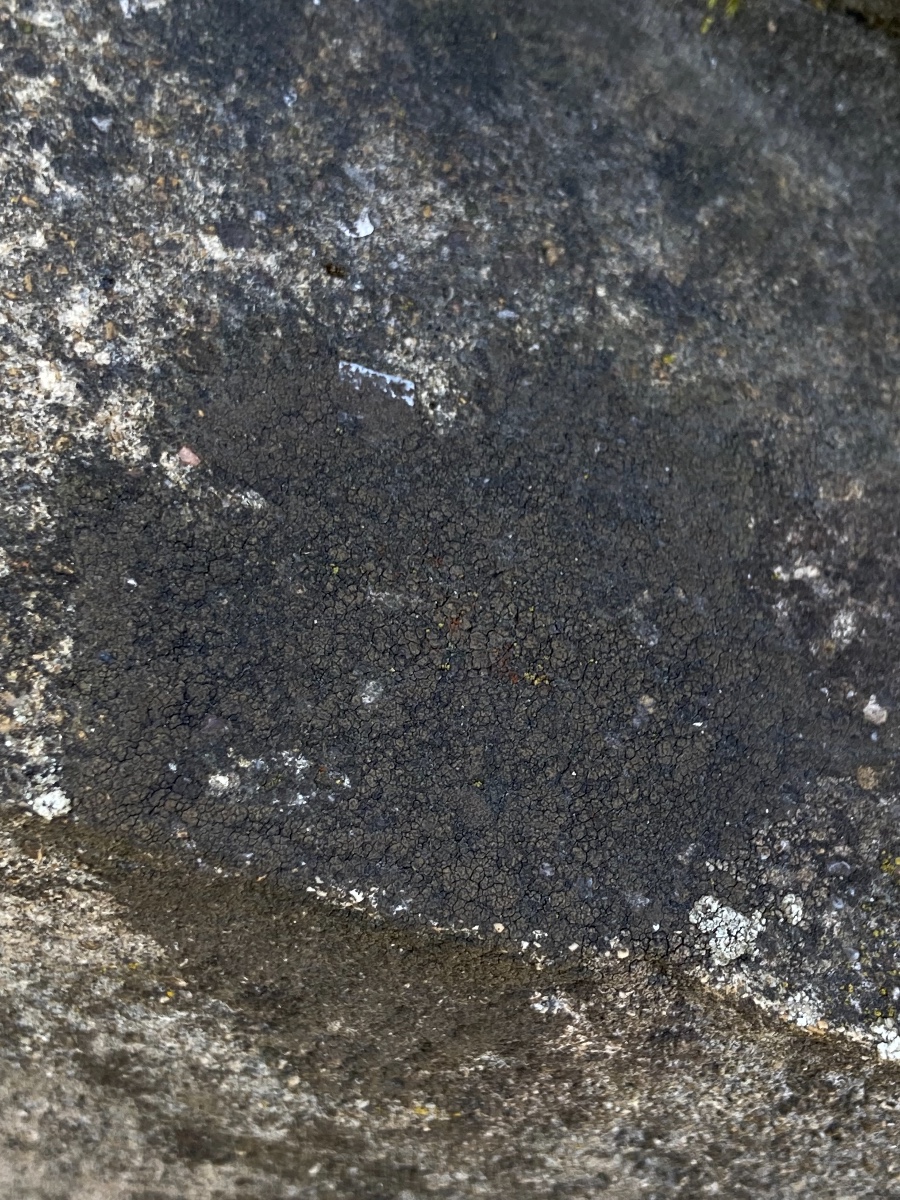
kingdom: Fungi
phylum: Ascomycota
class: Eurotiomycetes
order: Verrucariales
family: Verrucariaceae
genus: Verrucaria
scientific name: Verrucaria nigrescens
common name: sortbrun vortelav
